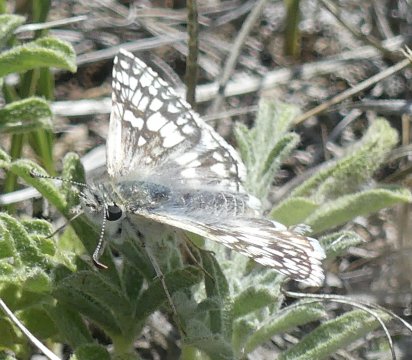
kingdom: Animalia
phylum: Arthropoda
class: Insecta
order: Lepidoptera
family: Hesperiidae
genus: Pyrgus
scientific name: Pyrgus communis
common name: Common Checkered-Skipper
